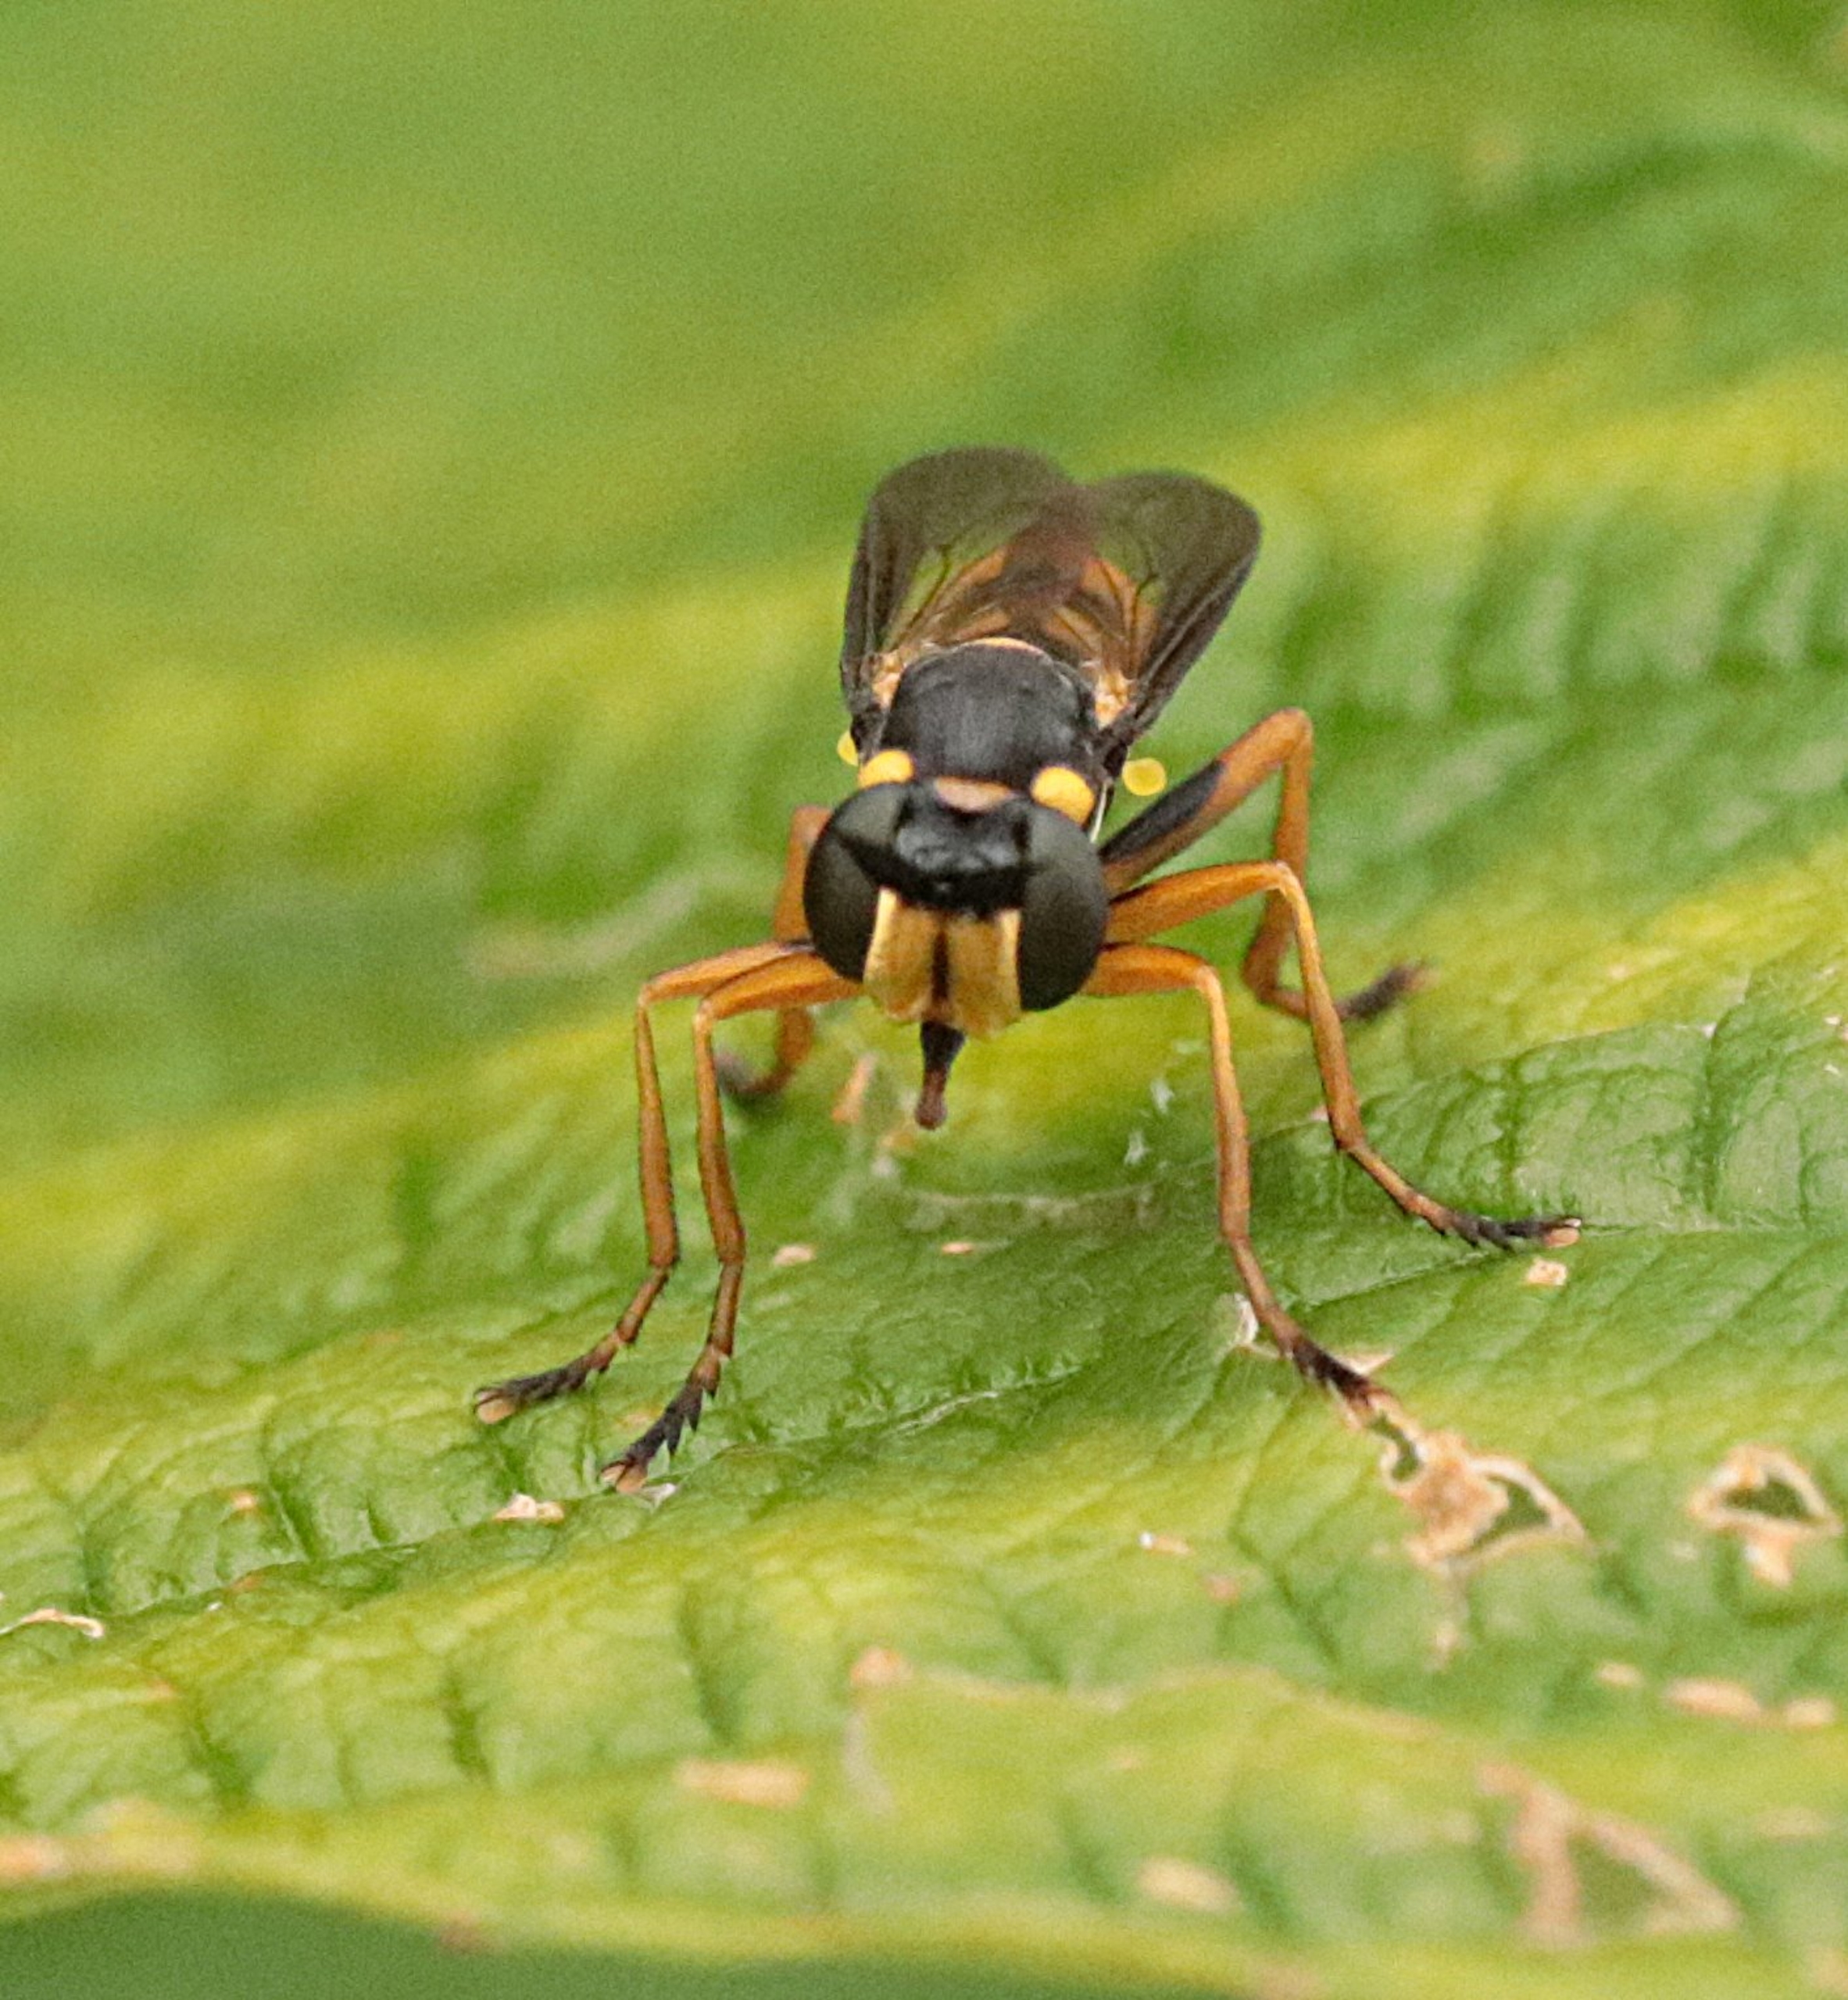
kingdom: Animalia
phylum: Arthropoda
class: Insecta
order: Diptera
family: Conopidae
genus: Leopoldius
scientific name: Leopoldius signatus
